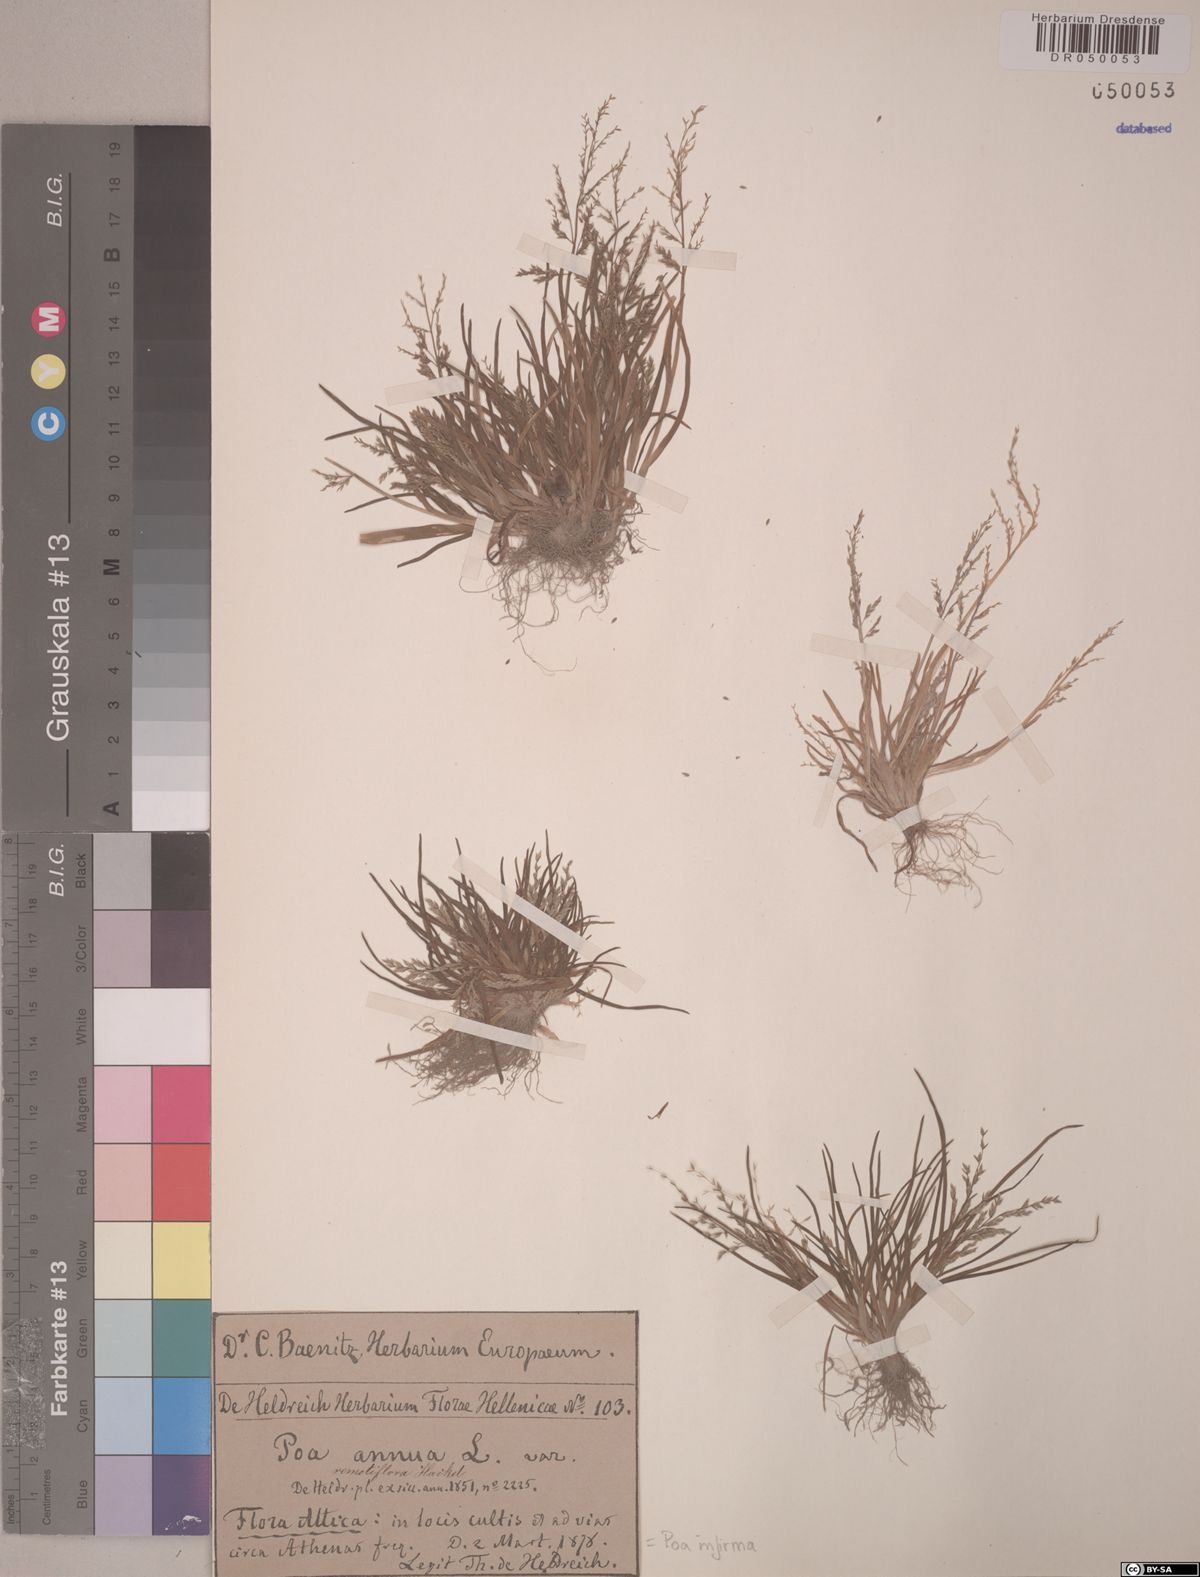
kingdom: Plantae
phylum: Tracheophyta
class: Liliopsida
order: Poales
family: Poaceae
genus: Poa
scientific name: Poa infirma
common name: Weak bluegrass
